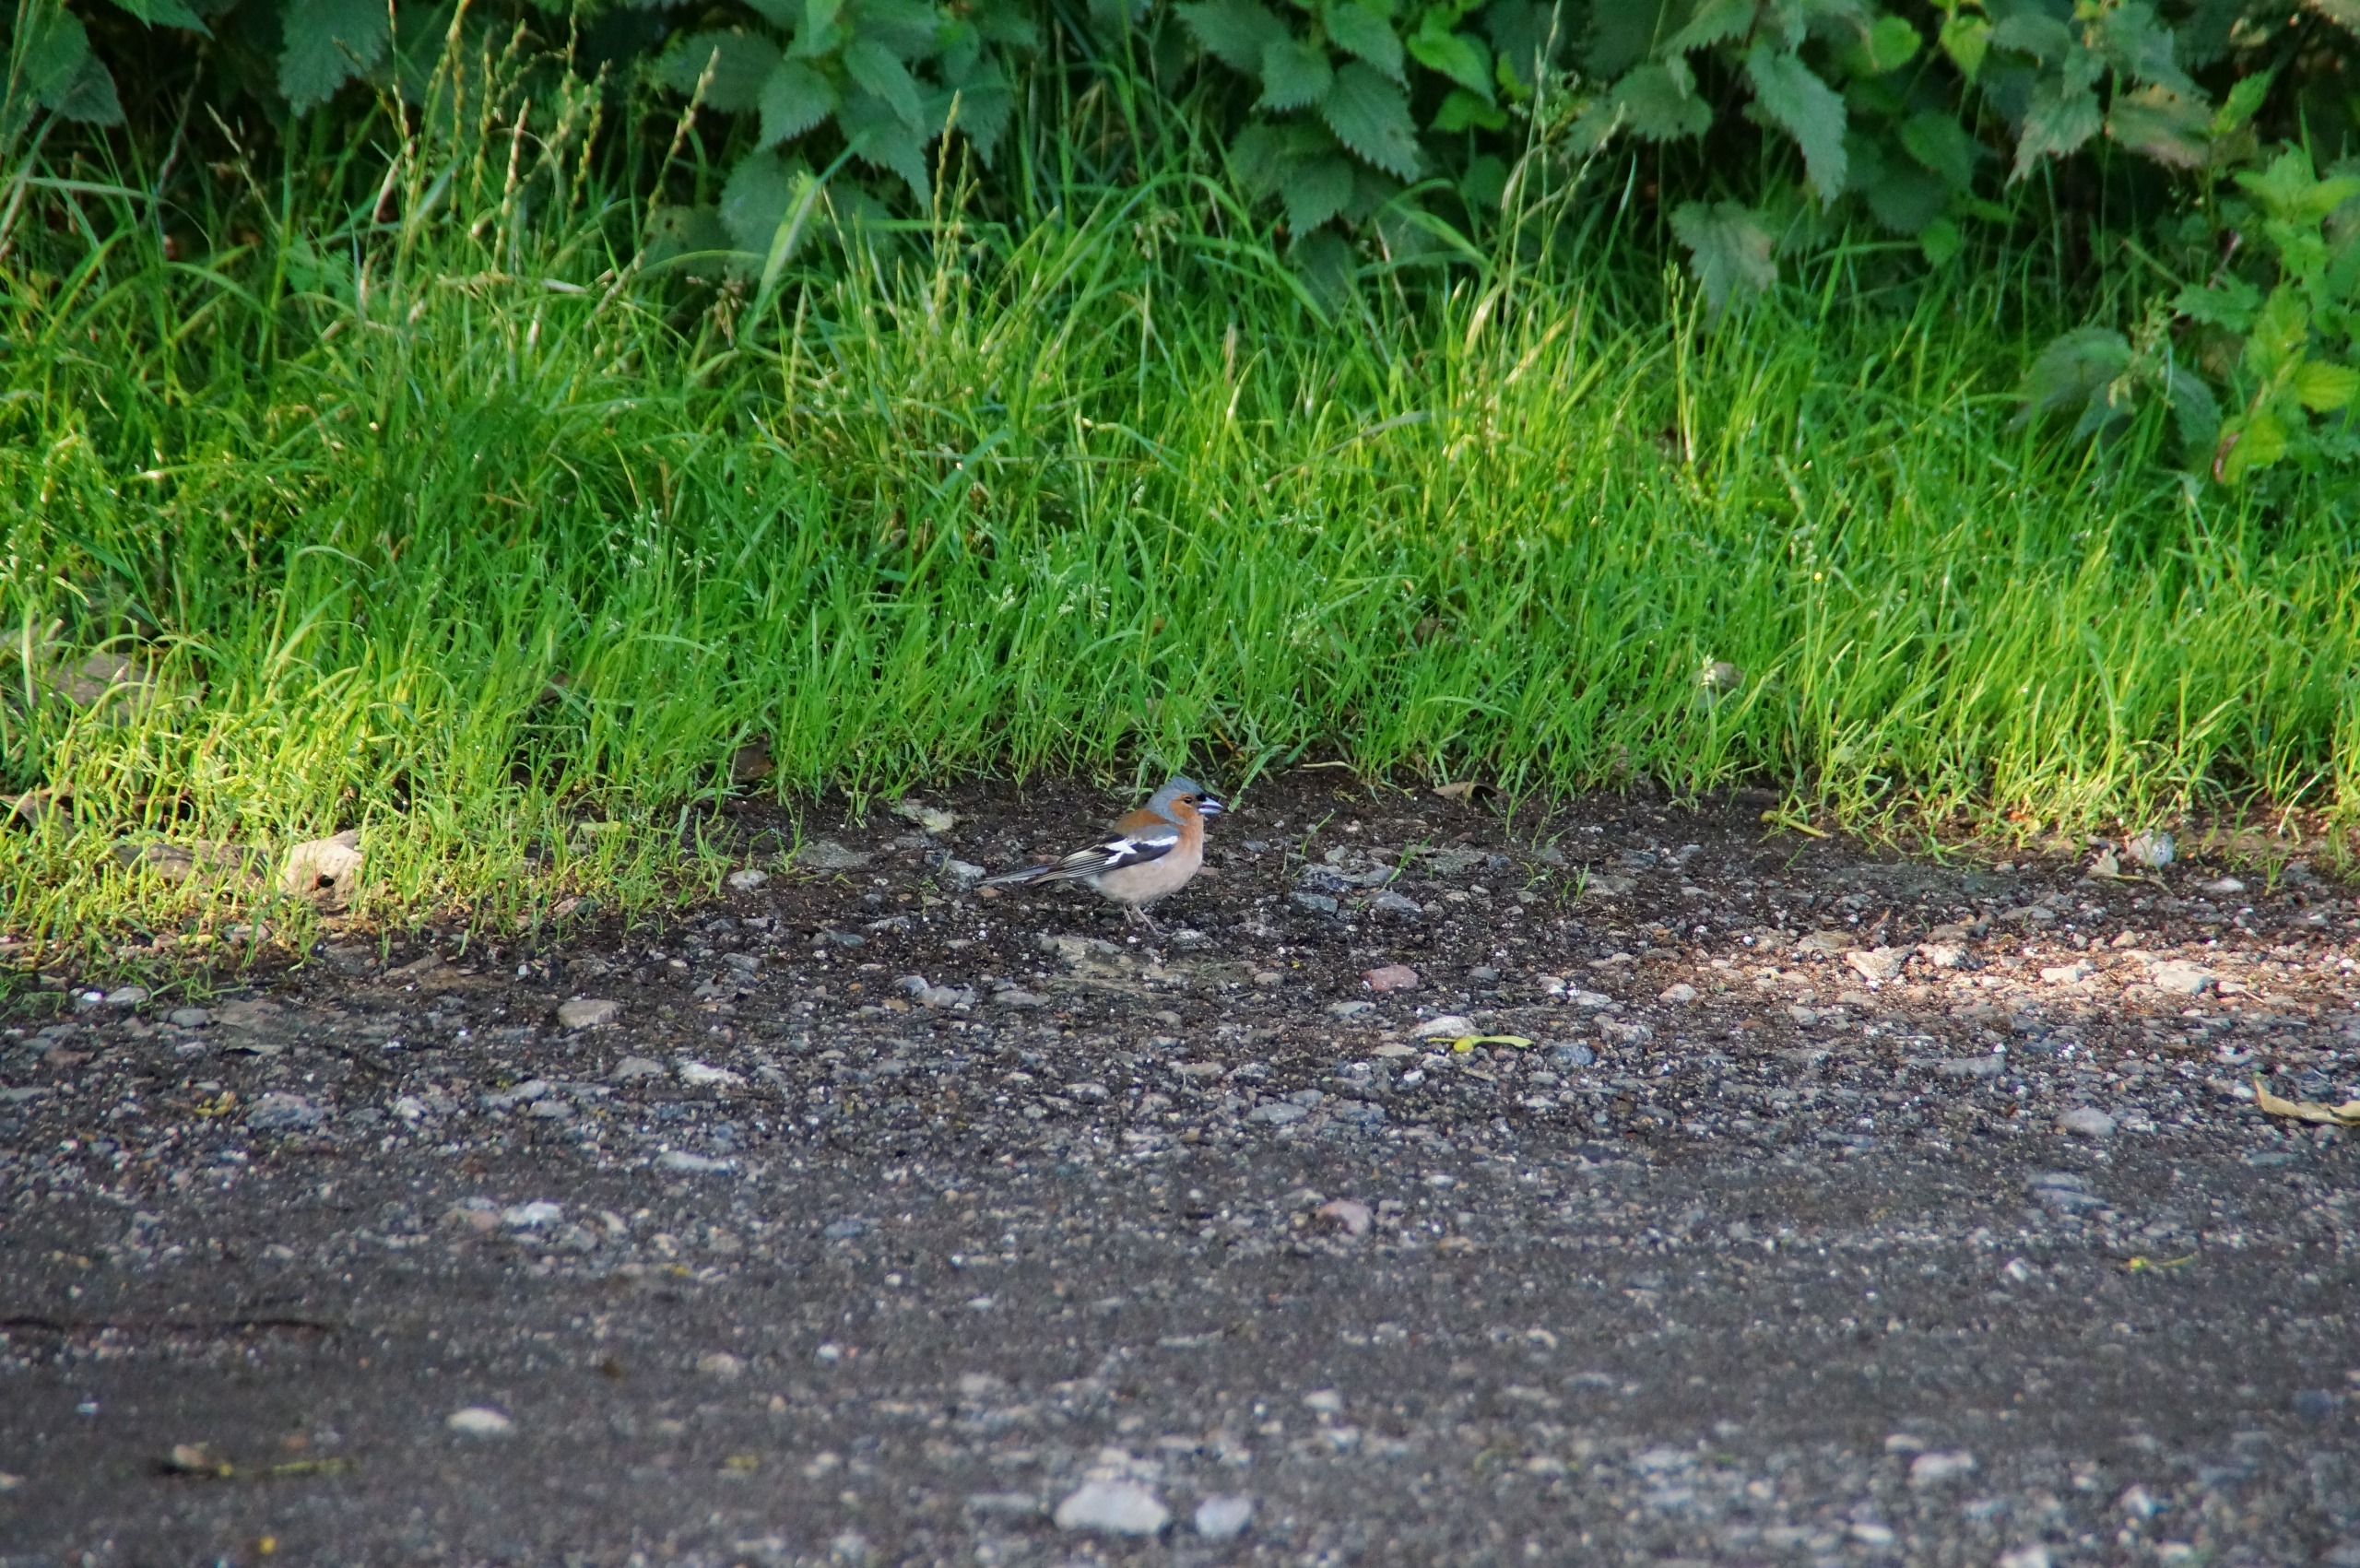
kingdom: Animalia
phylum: Chordata
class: Aves
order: Passeriformes
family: Fringillidae
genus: Fringilla
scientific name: Fringilla coelebs
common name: Bogfinke
